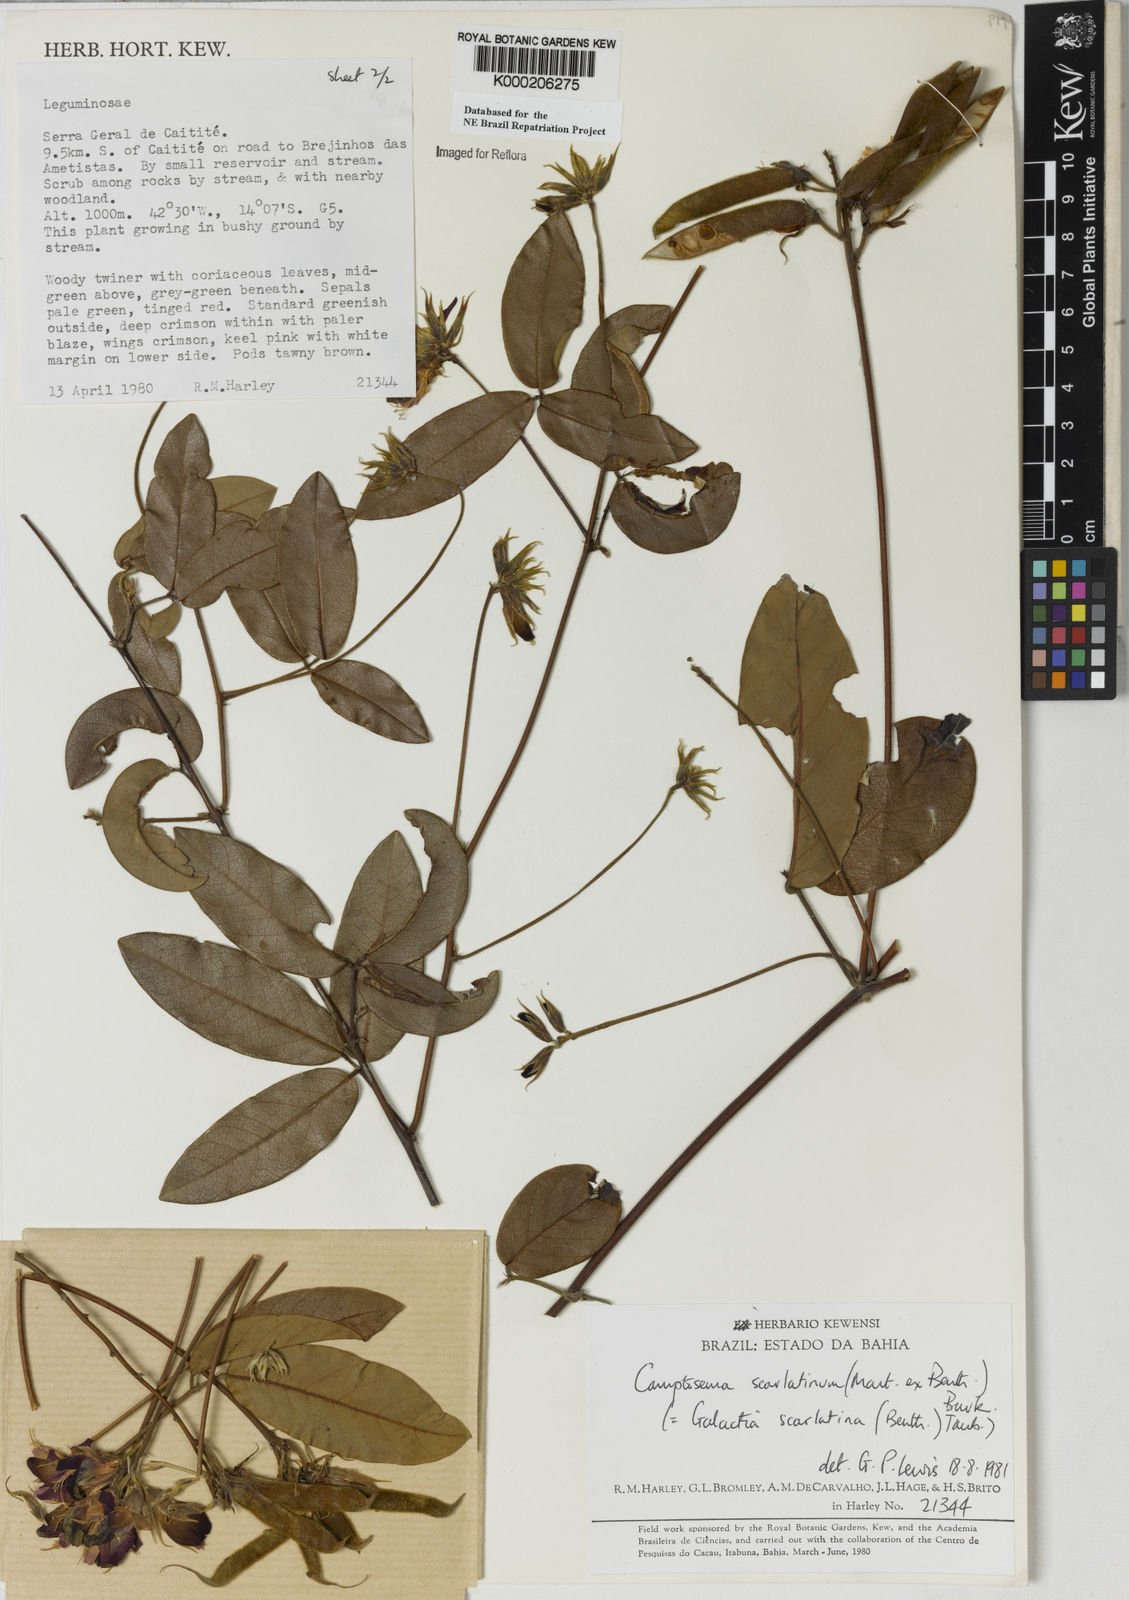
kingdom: Plantae
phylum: Tracheophyta
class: Magnoliopsida
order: Fabales
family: Fabaceae
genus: Betencourtia
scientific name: Betencourtia scarlatina
